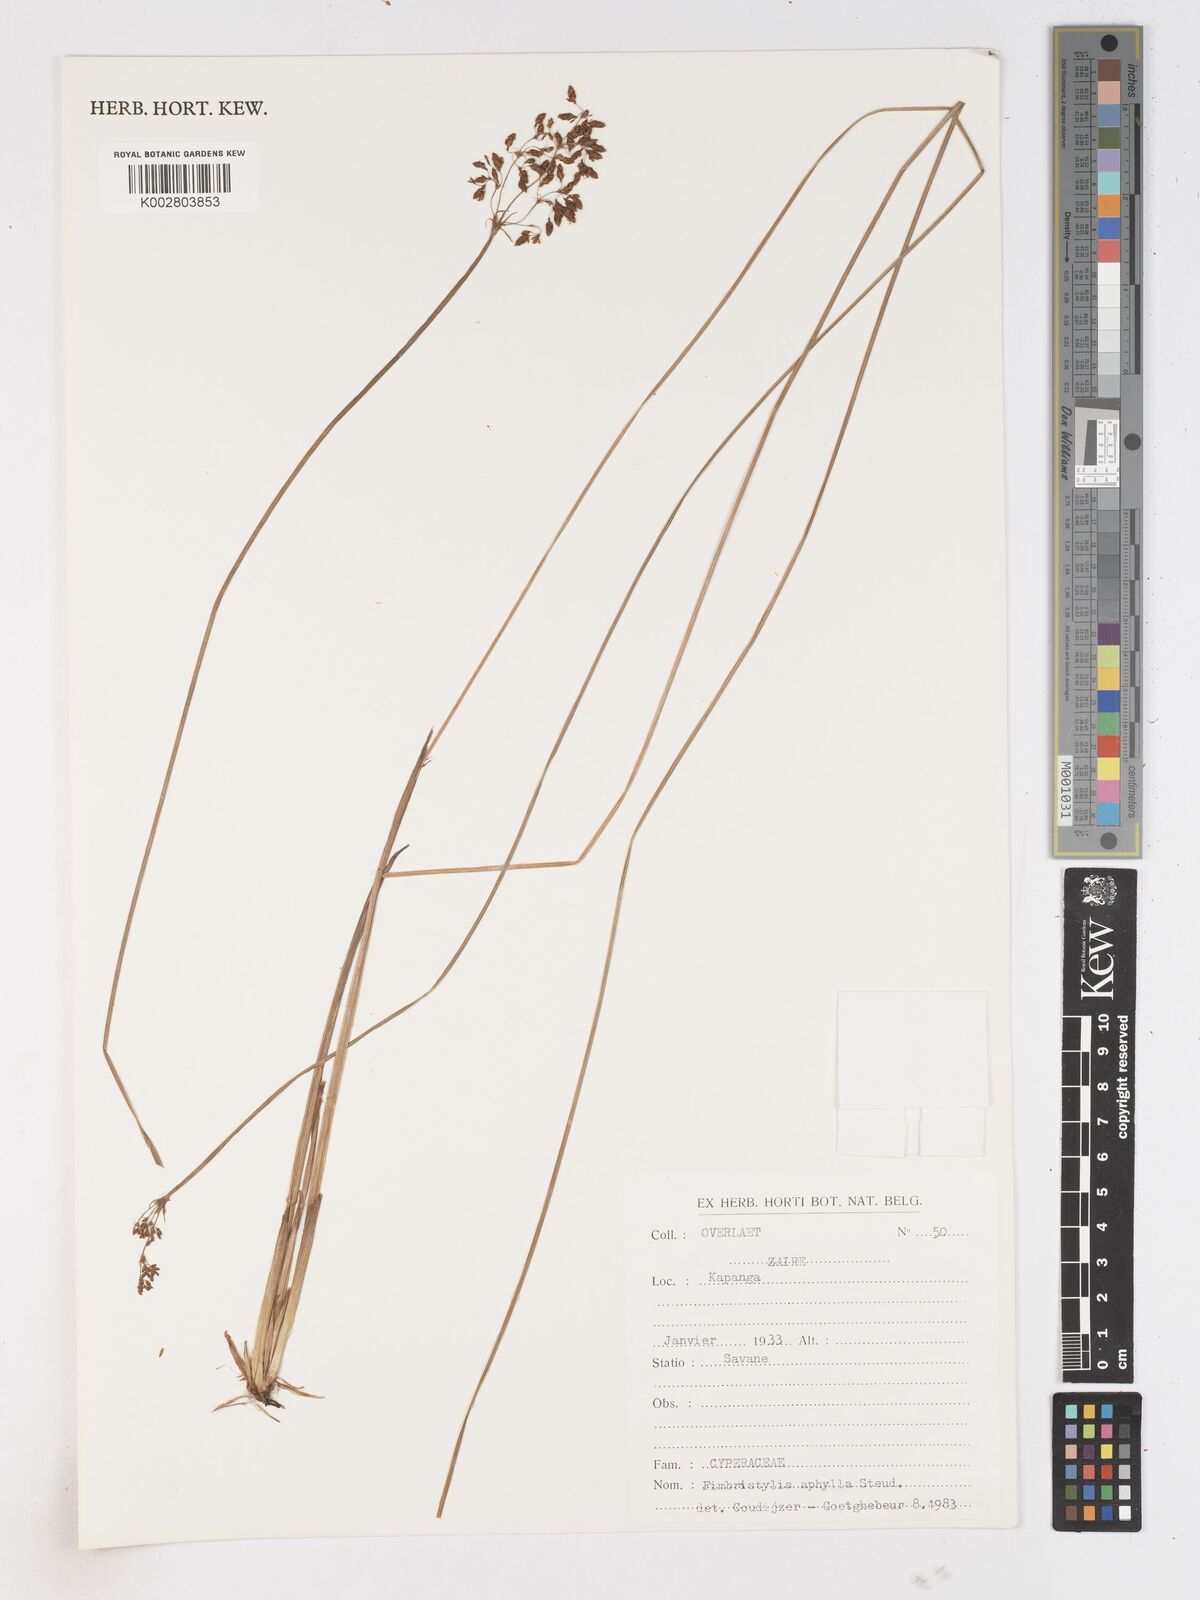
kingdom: Plantae
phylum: Tracheophyta
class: Liliopsida
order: Poales
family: Cyperaceae
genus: Fimbristylis
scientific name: Fimbristylis aphylla
